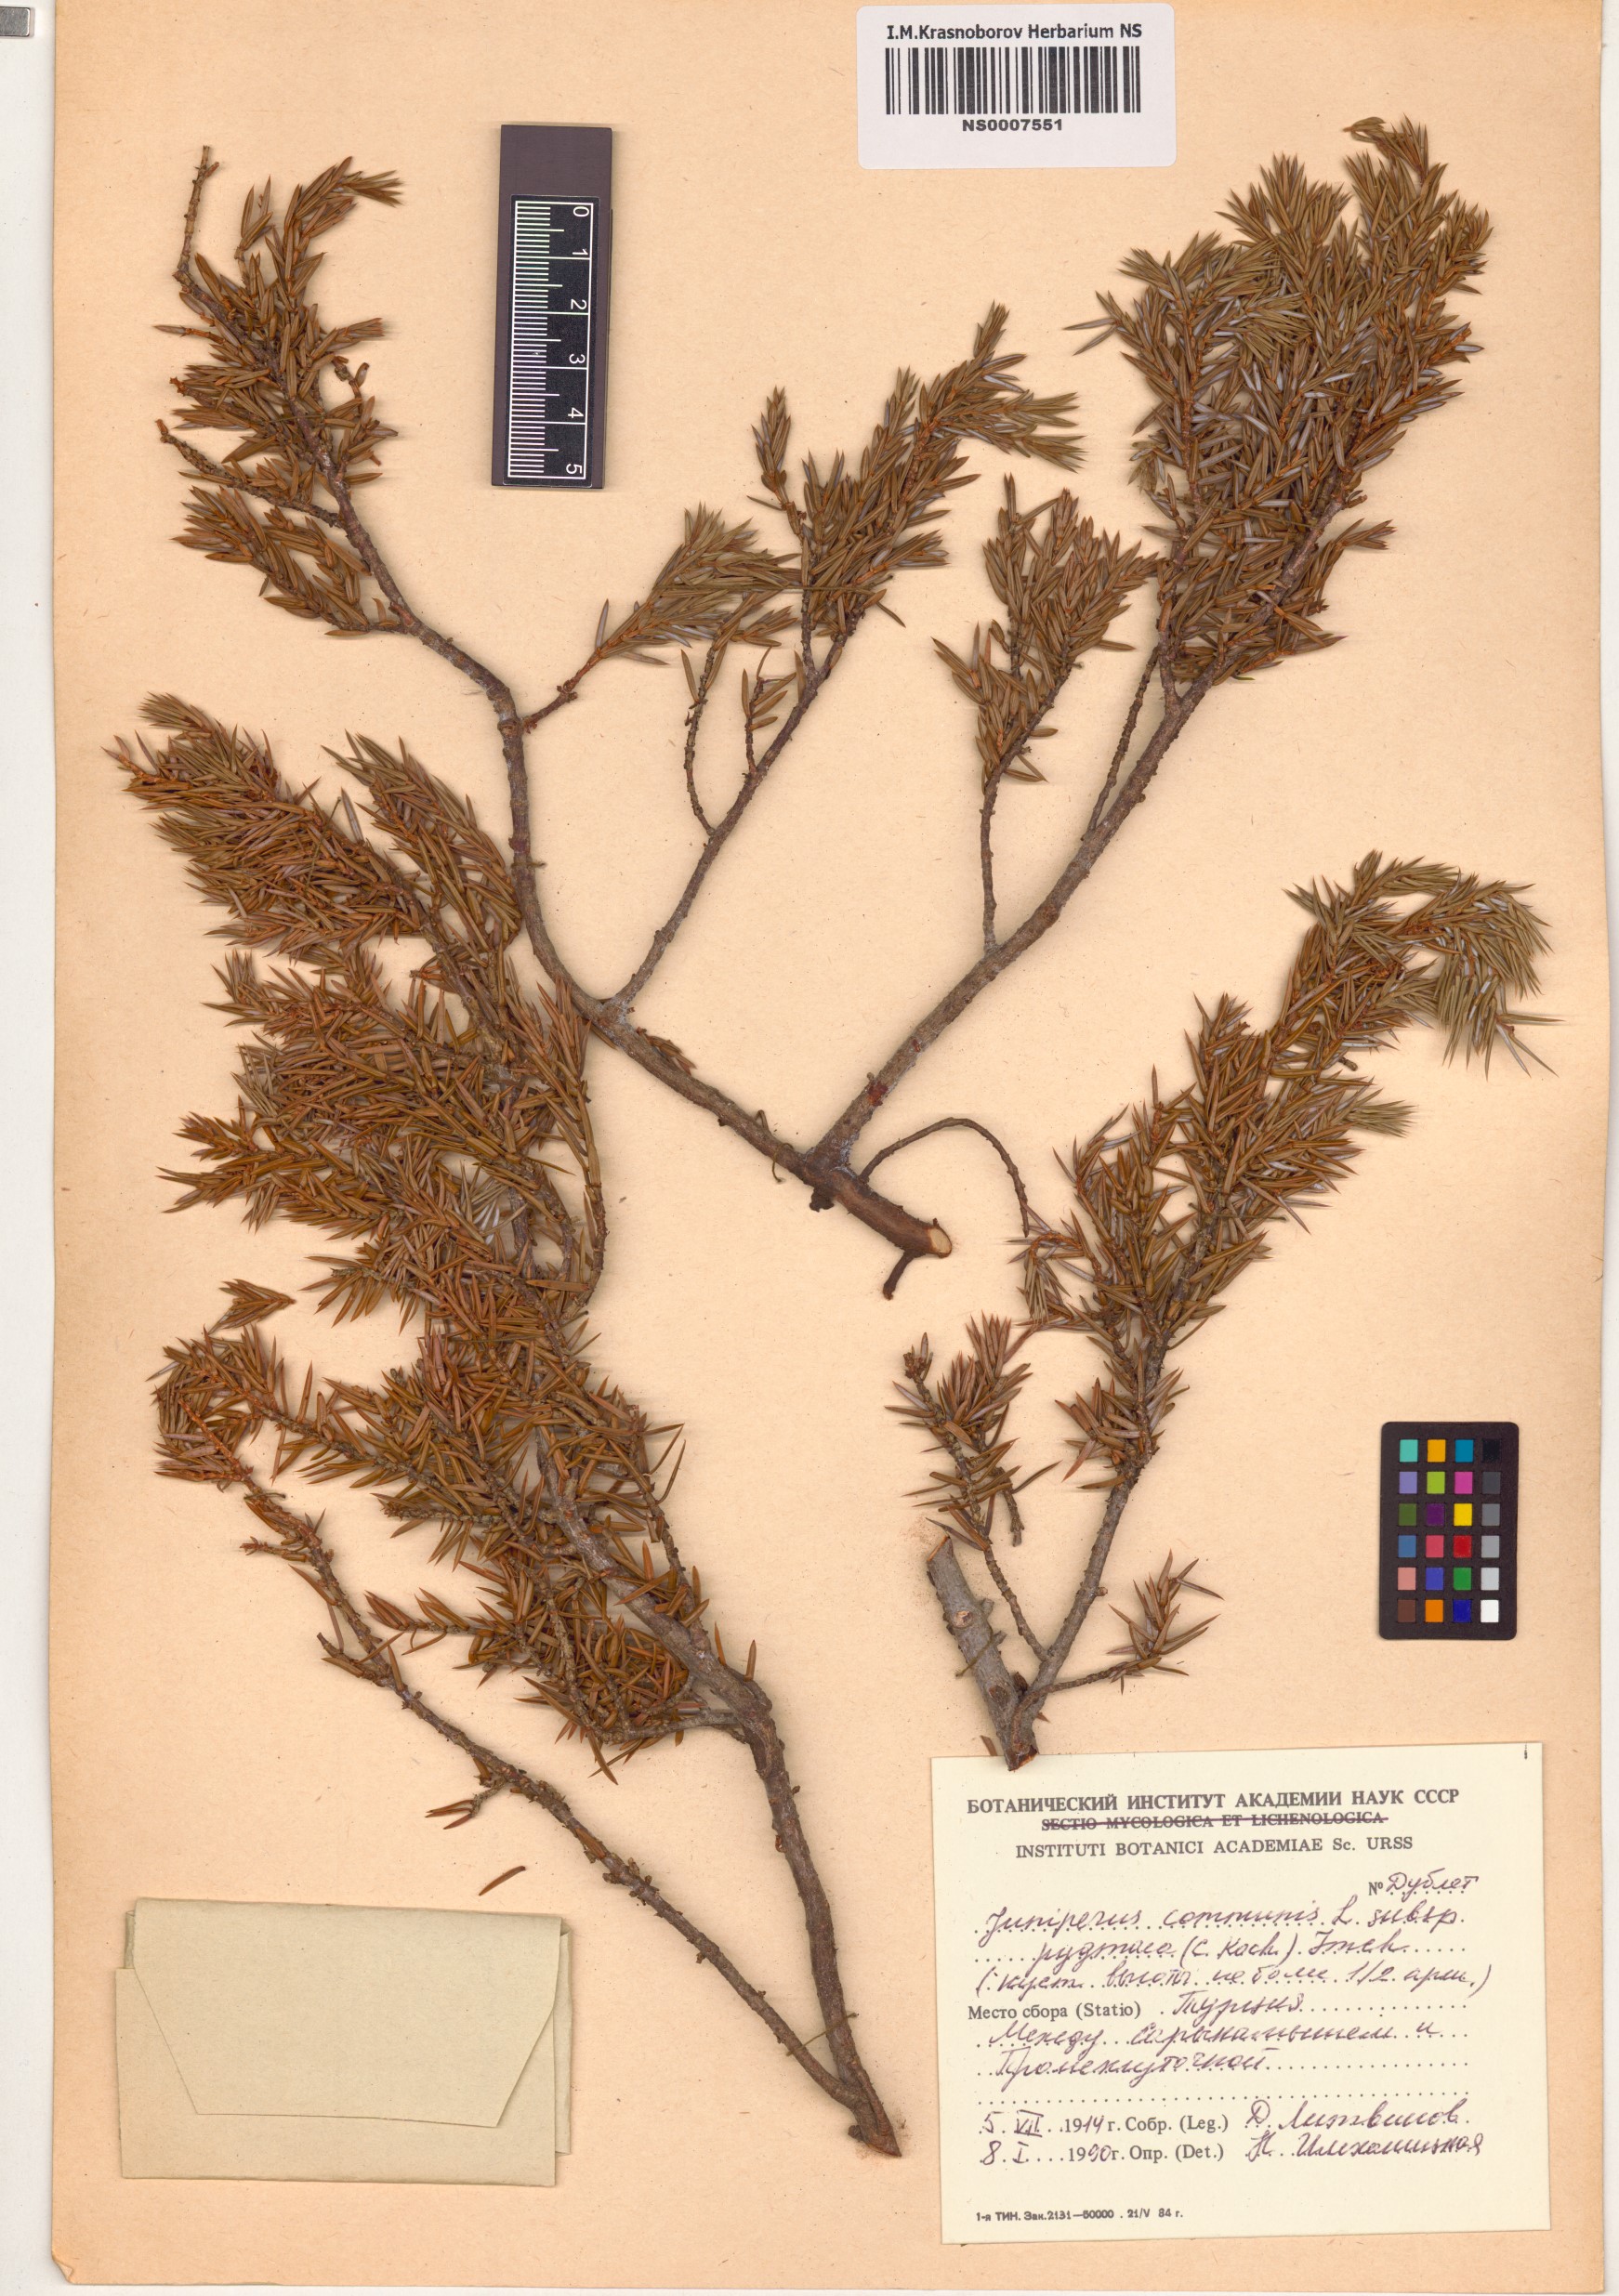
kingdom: Plantae
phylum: Tracheophyta
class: Pinopsida
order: Pinales
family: Cupressaceae
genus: Juniperus
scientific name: Juniperus communis
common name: Common juniper
